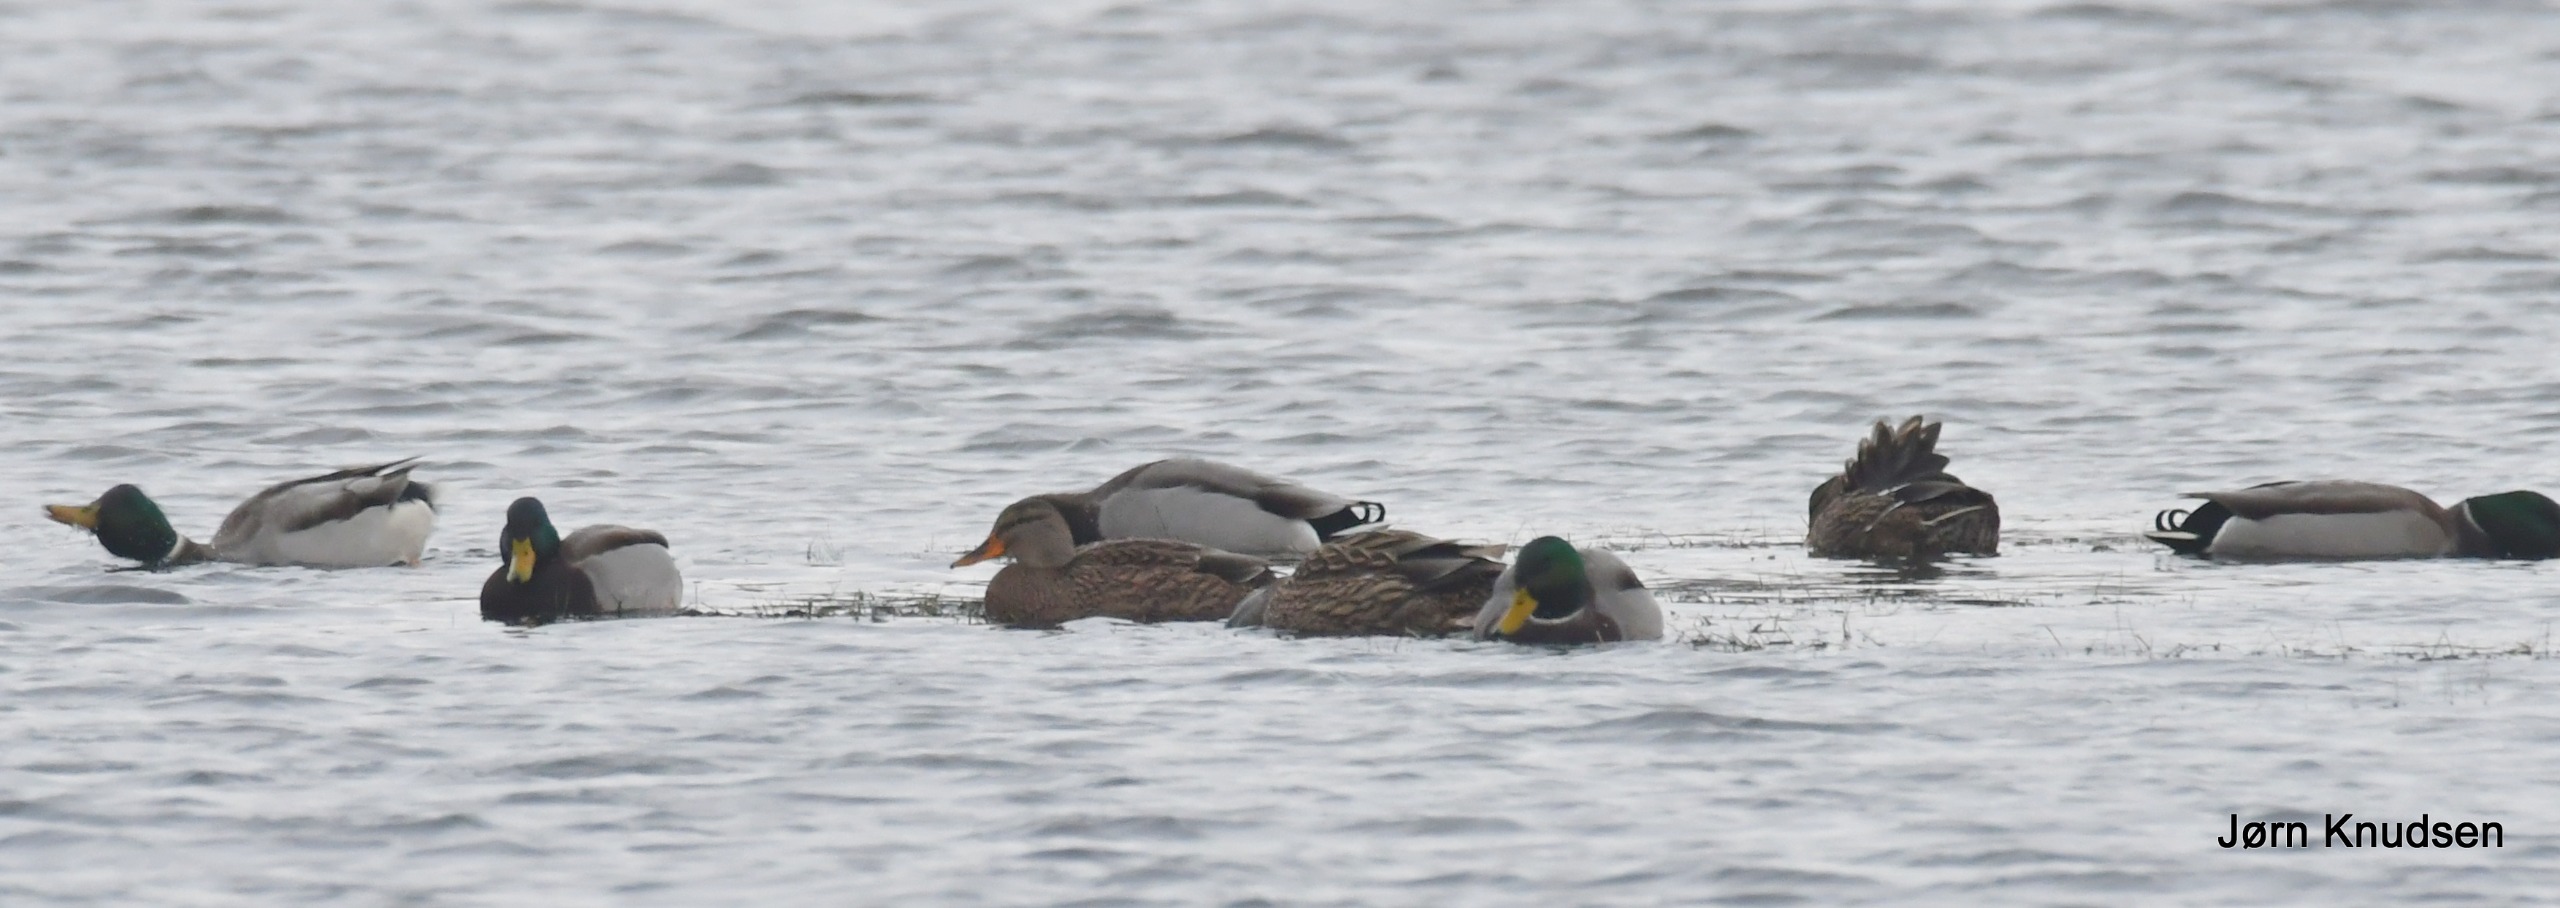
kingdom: Animalia
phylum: Chordata
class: Aves
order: Anseriformes
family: Anatidae
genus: Anas
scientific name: Anas platyrhynchos
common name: Gråand
